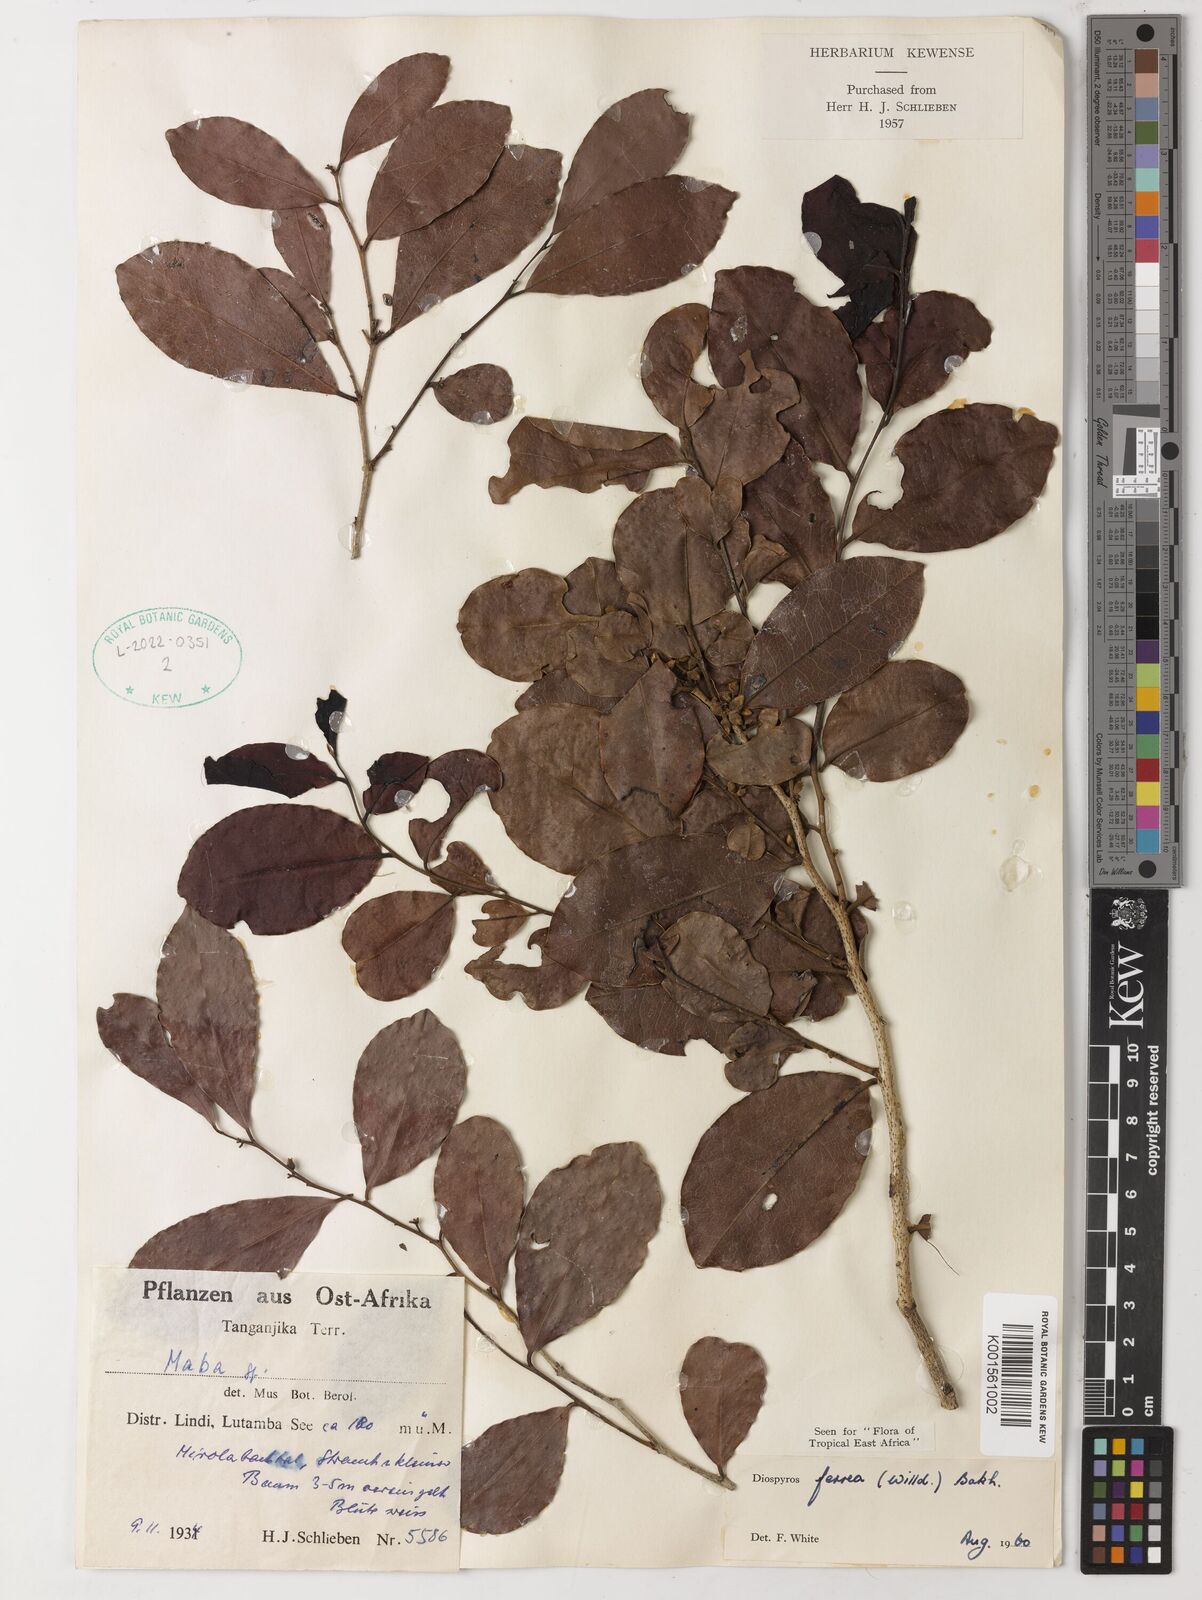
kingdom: Plantae
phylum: Tracheophyta
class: Magnoliopsida
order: Ericales
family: Ebenaceae
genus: Diospyros
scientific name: Diospyros ferrea
